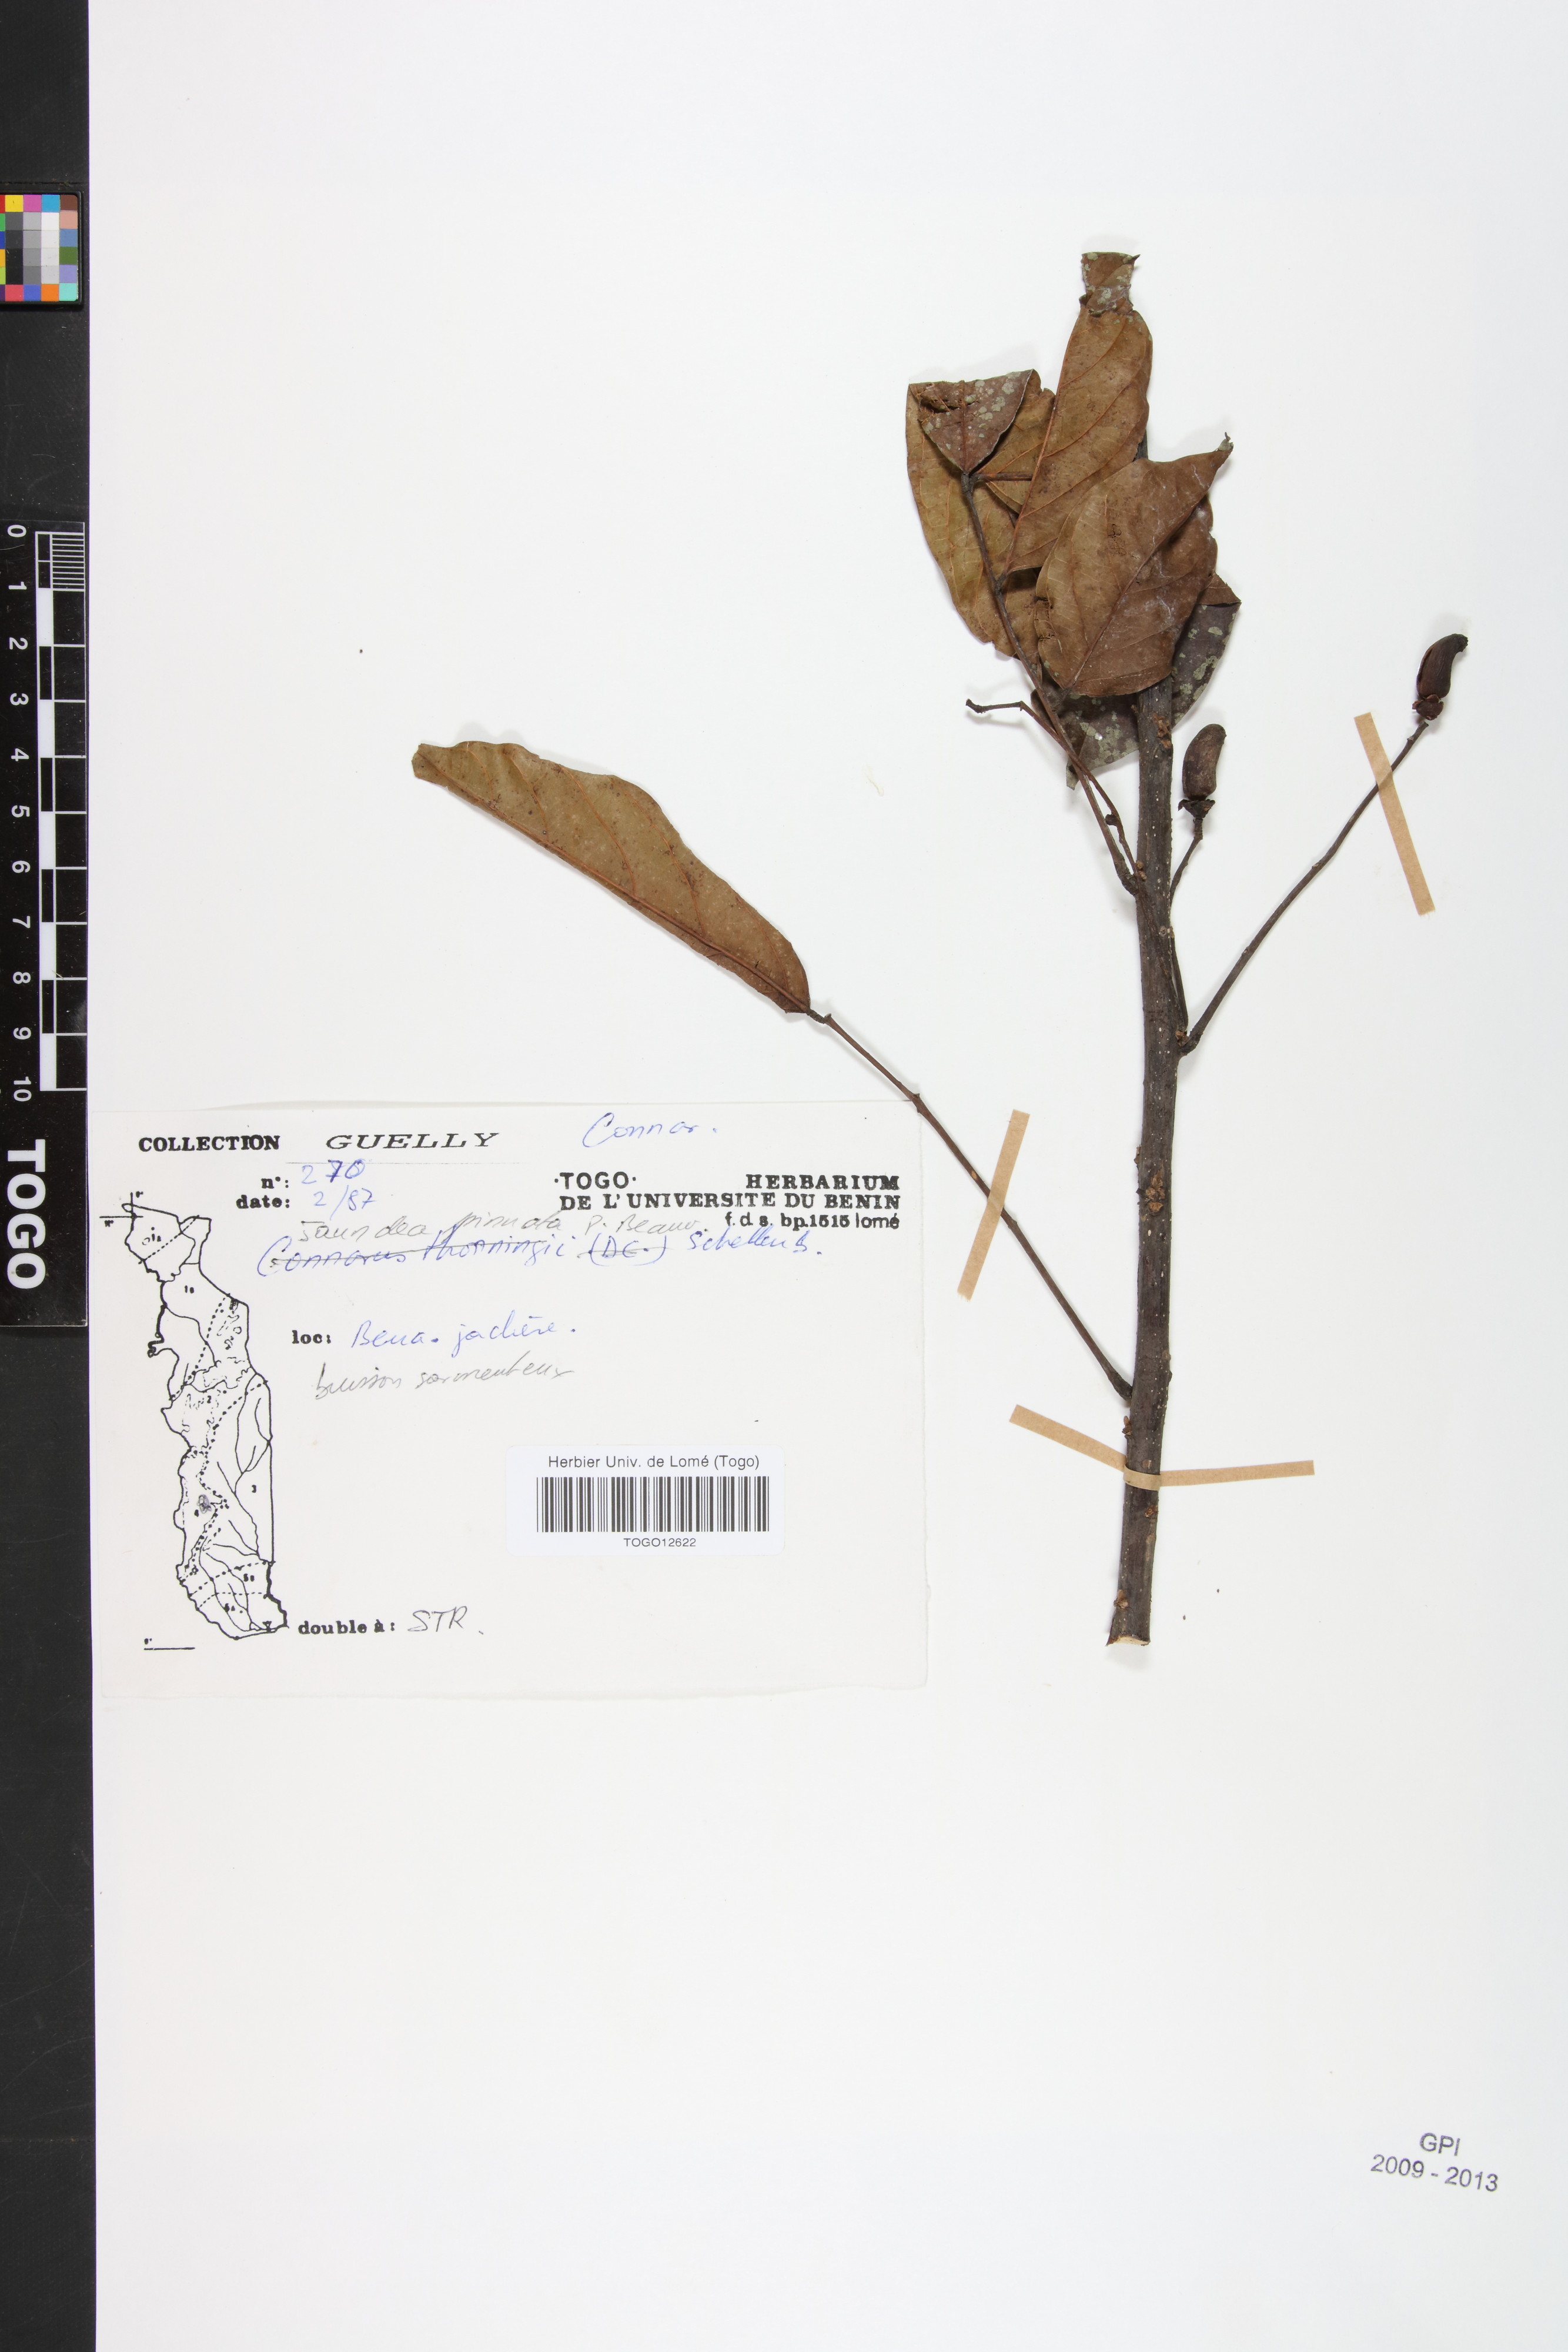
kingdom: Plantae
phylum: Tracheophyta
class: Magnoliopsida
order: Oxalidales
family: Connaraceae
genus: Rourea
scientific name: Rourea thomsonii
